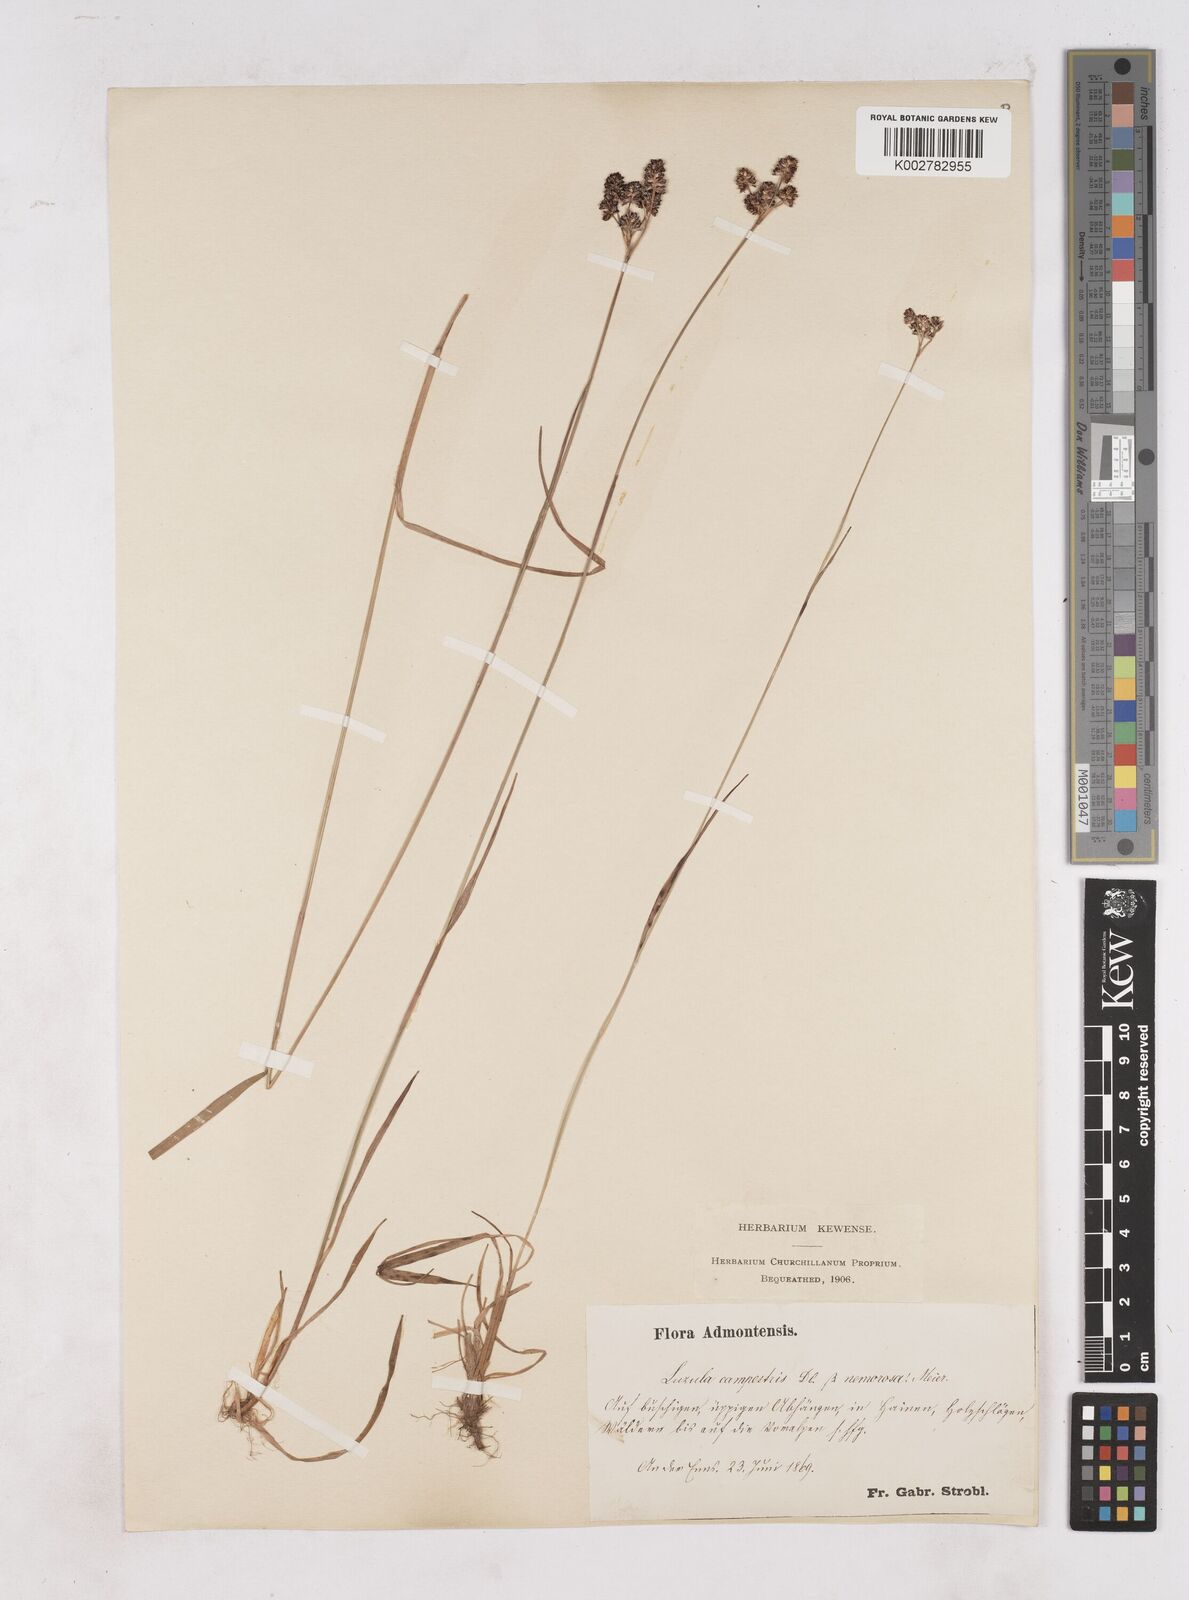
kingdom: Plantae
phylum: Tracheophyta
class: Liliopsida
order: Poales
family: Juncaceae
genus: Luzula
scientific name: Luzula campestris
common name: Field wood-rush
